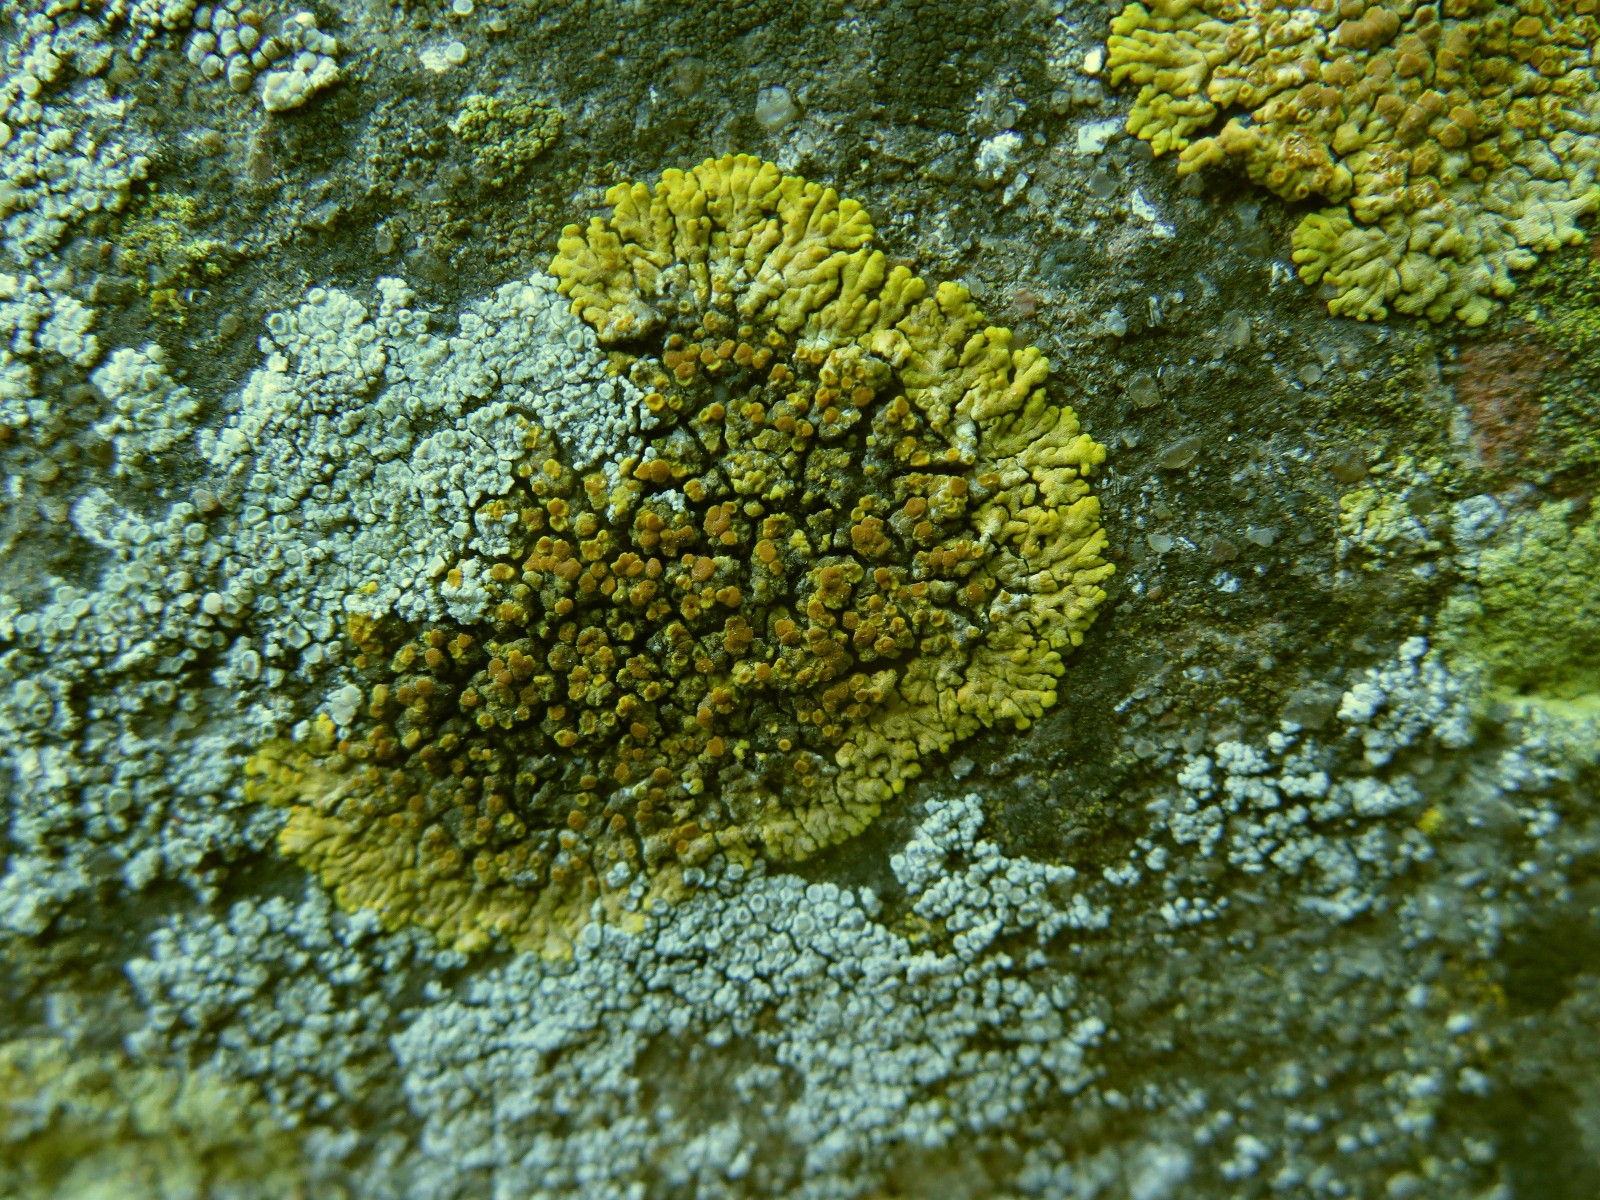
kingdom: Fungi
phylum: Ascomycota
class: Lecanoromycetes
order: Teloschistales
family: Teloschistaceae
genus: Variospora
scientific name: Variospora flavescens
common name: kalk-orangelav
